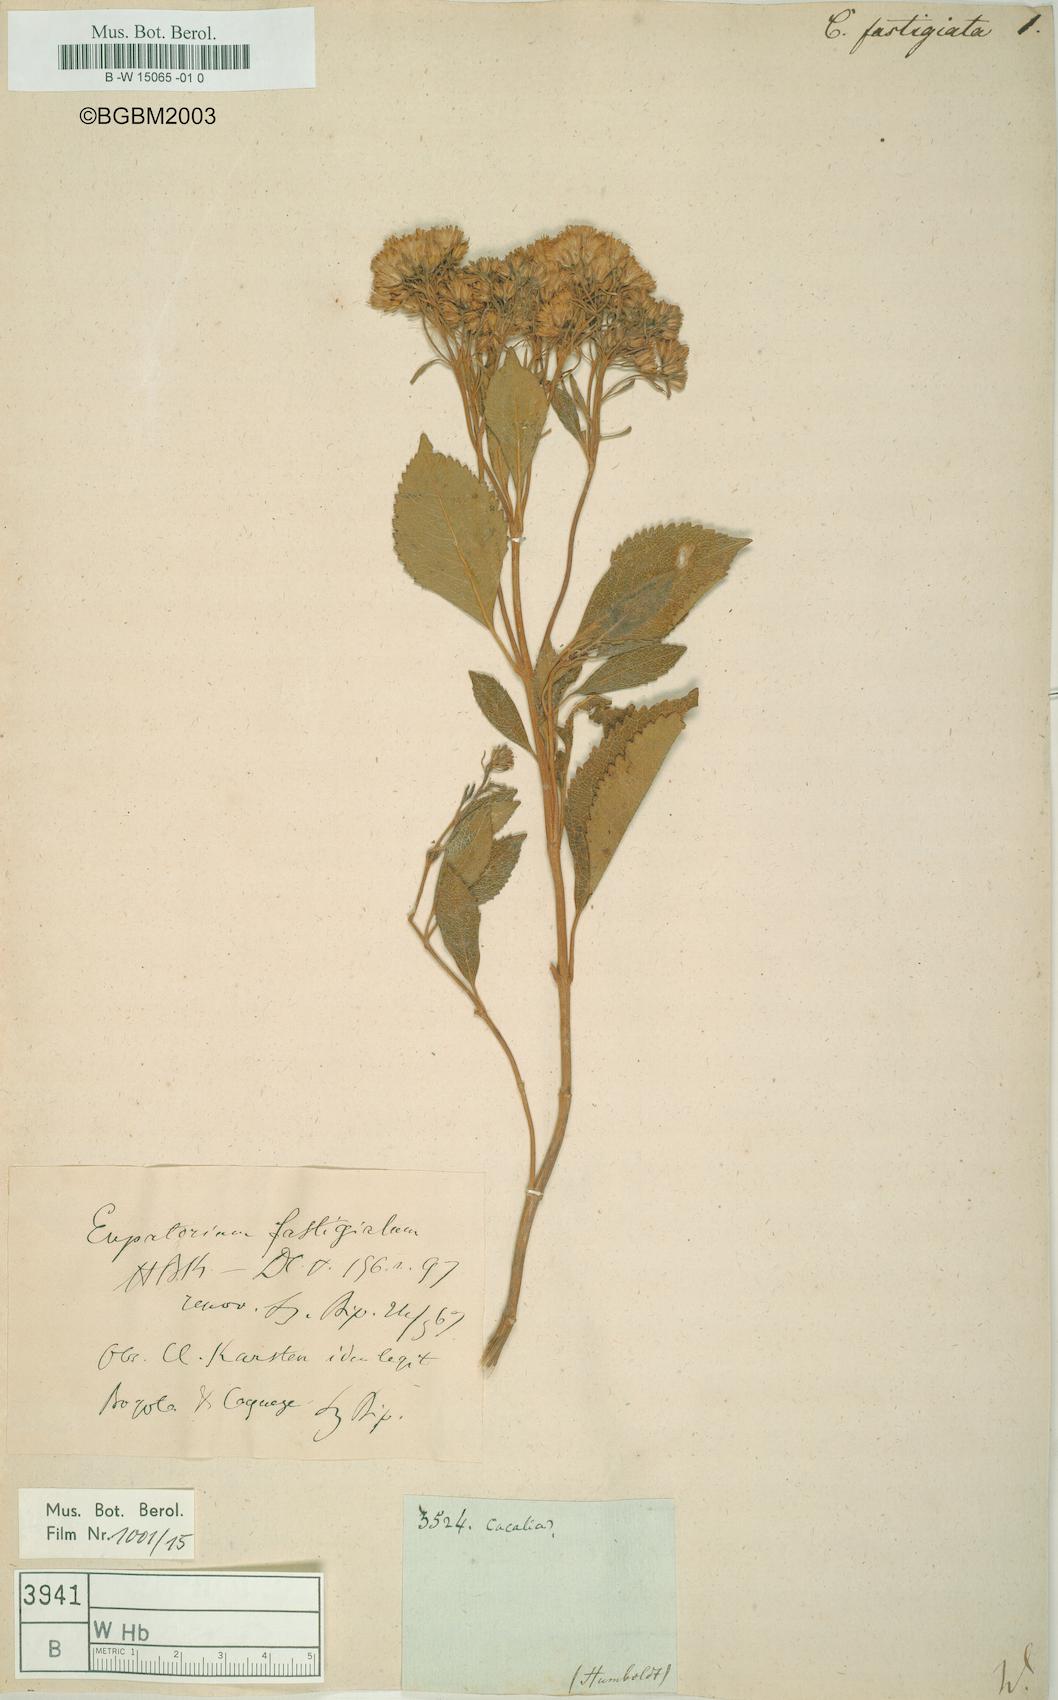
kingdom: Plantae
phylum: Tracheophyta
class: Magnoliopsida
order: Asterales
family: Asteraceae
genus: Parapolydora
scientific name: Parapolydora fastigiata
